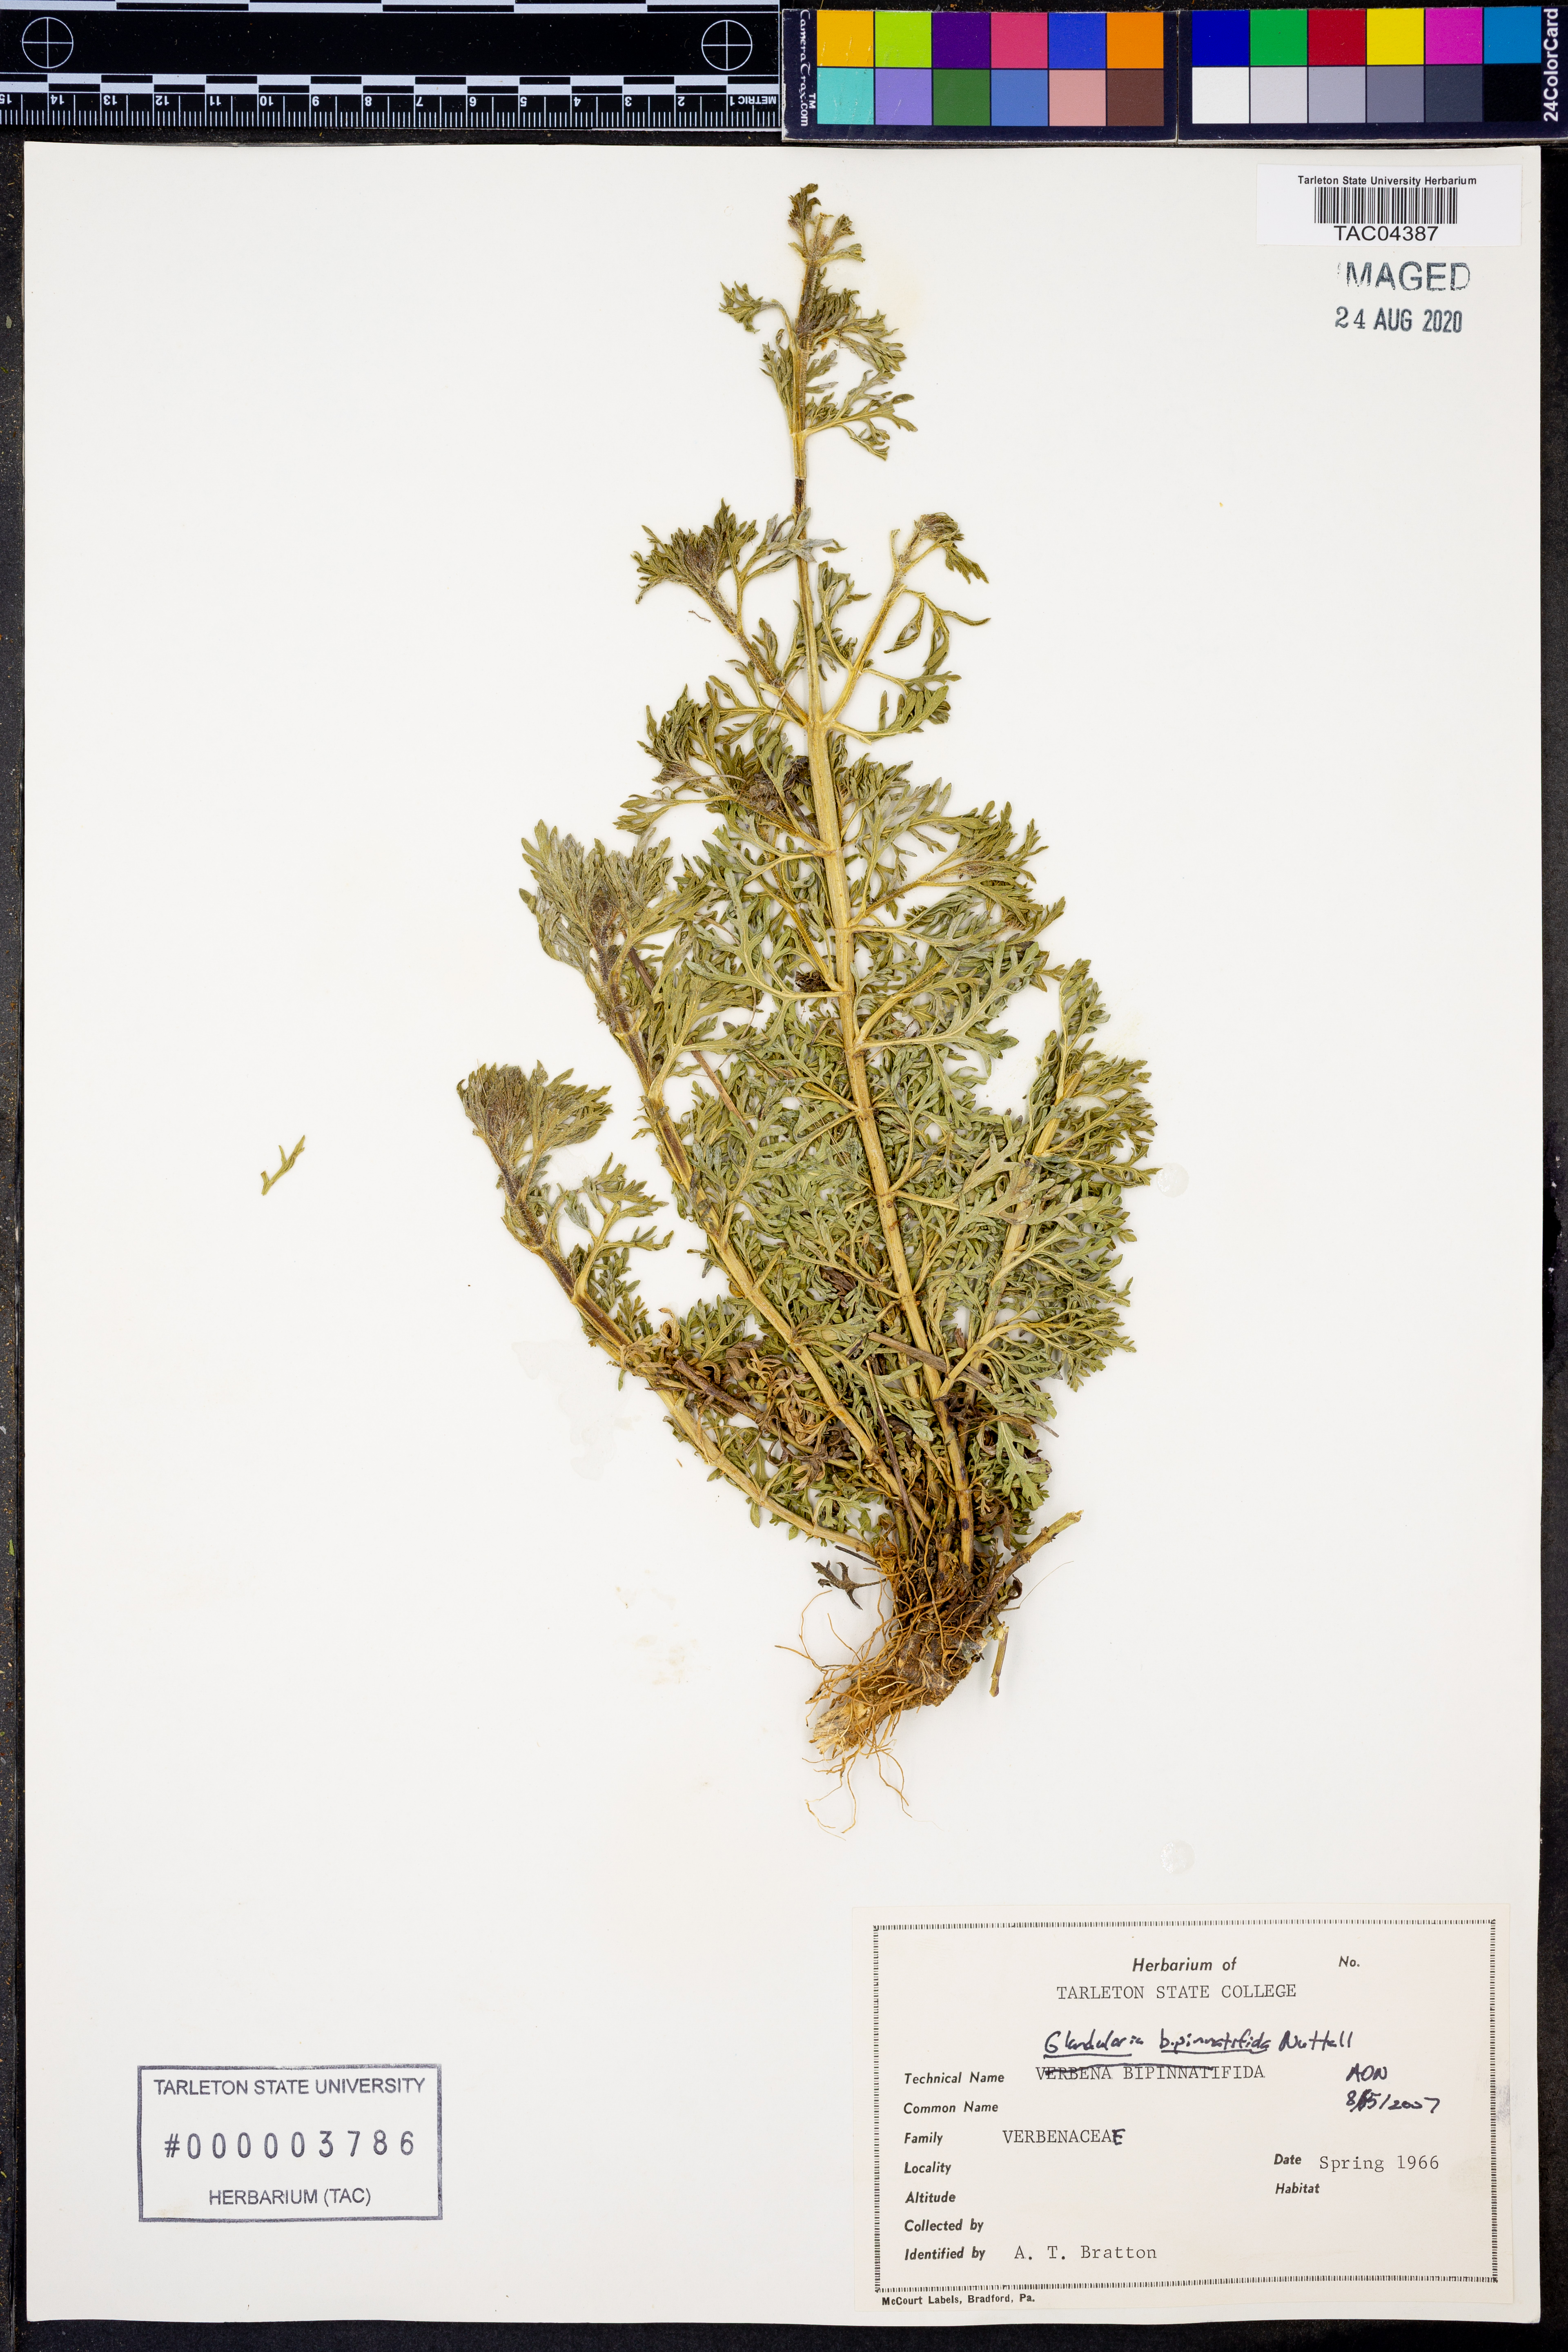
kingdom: Plantae
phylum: Tracheophyta
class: Magnoliopsida
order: Lamiales
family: Verbenaceae
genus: Verbena
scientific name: Verbena bipinnatifida
